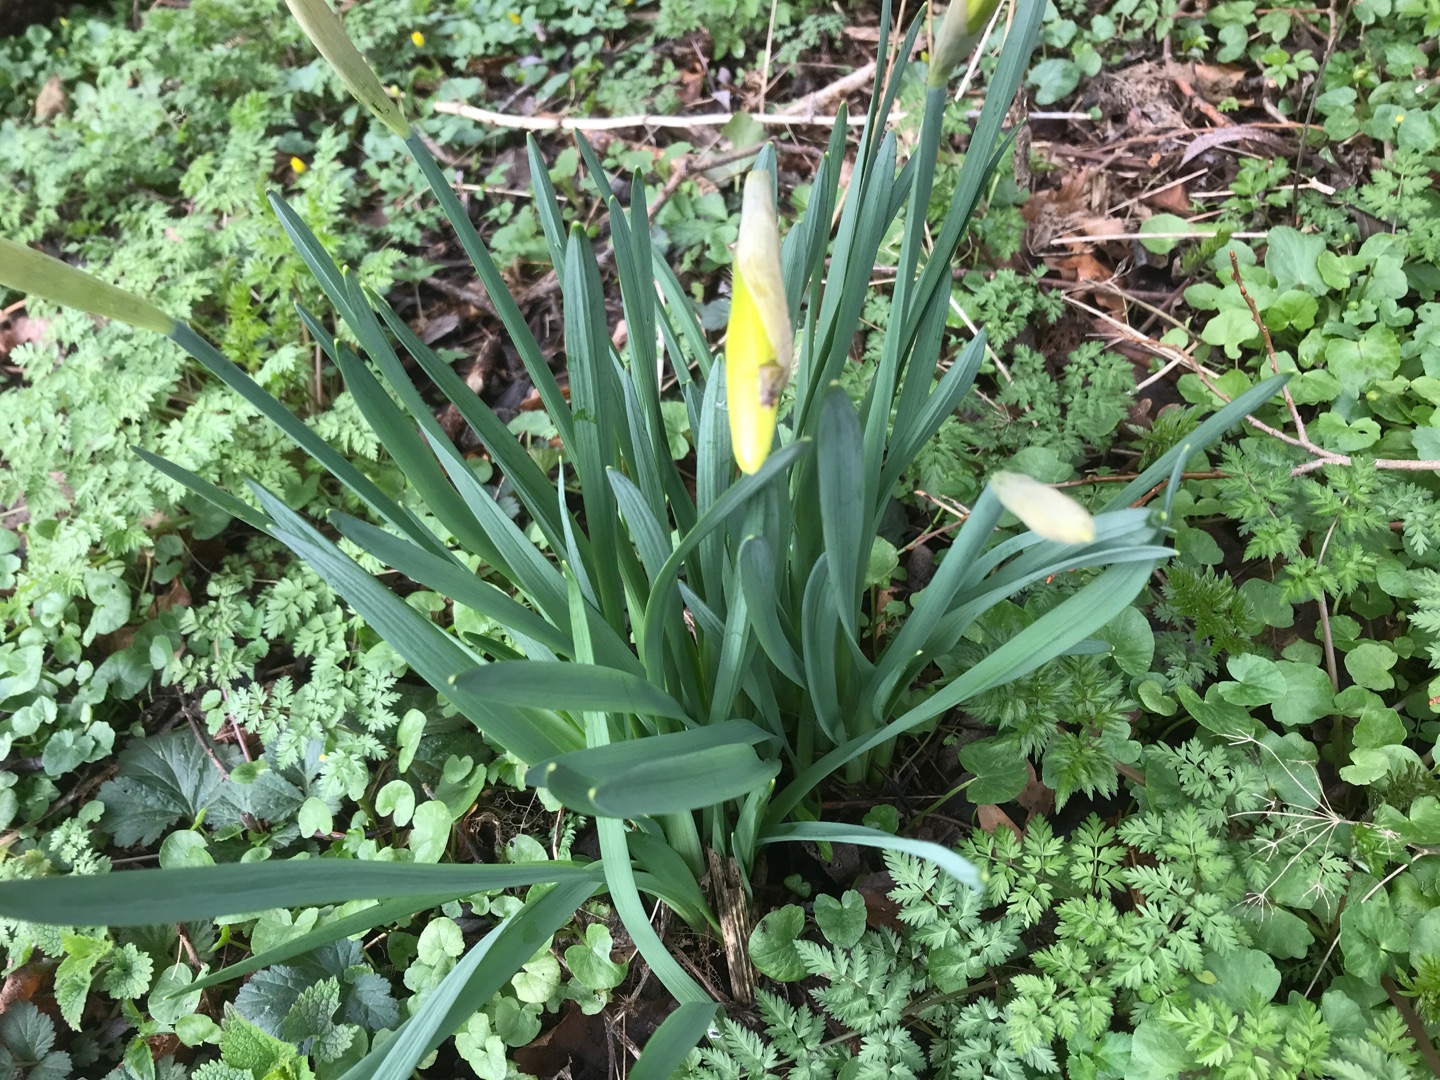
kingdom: Plantae
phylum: Tracheophyta
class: Liliopsida
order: Asparagales
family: Amaryllidaceae
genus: Narcissus
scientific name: Narcissus pseudonarcissus
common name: Påskelilje
